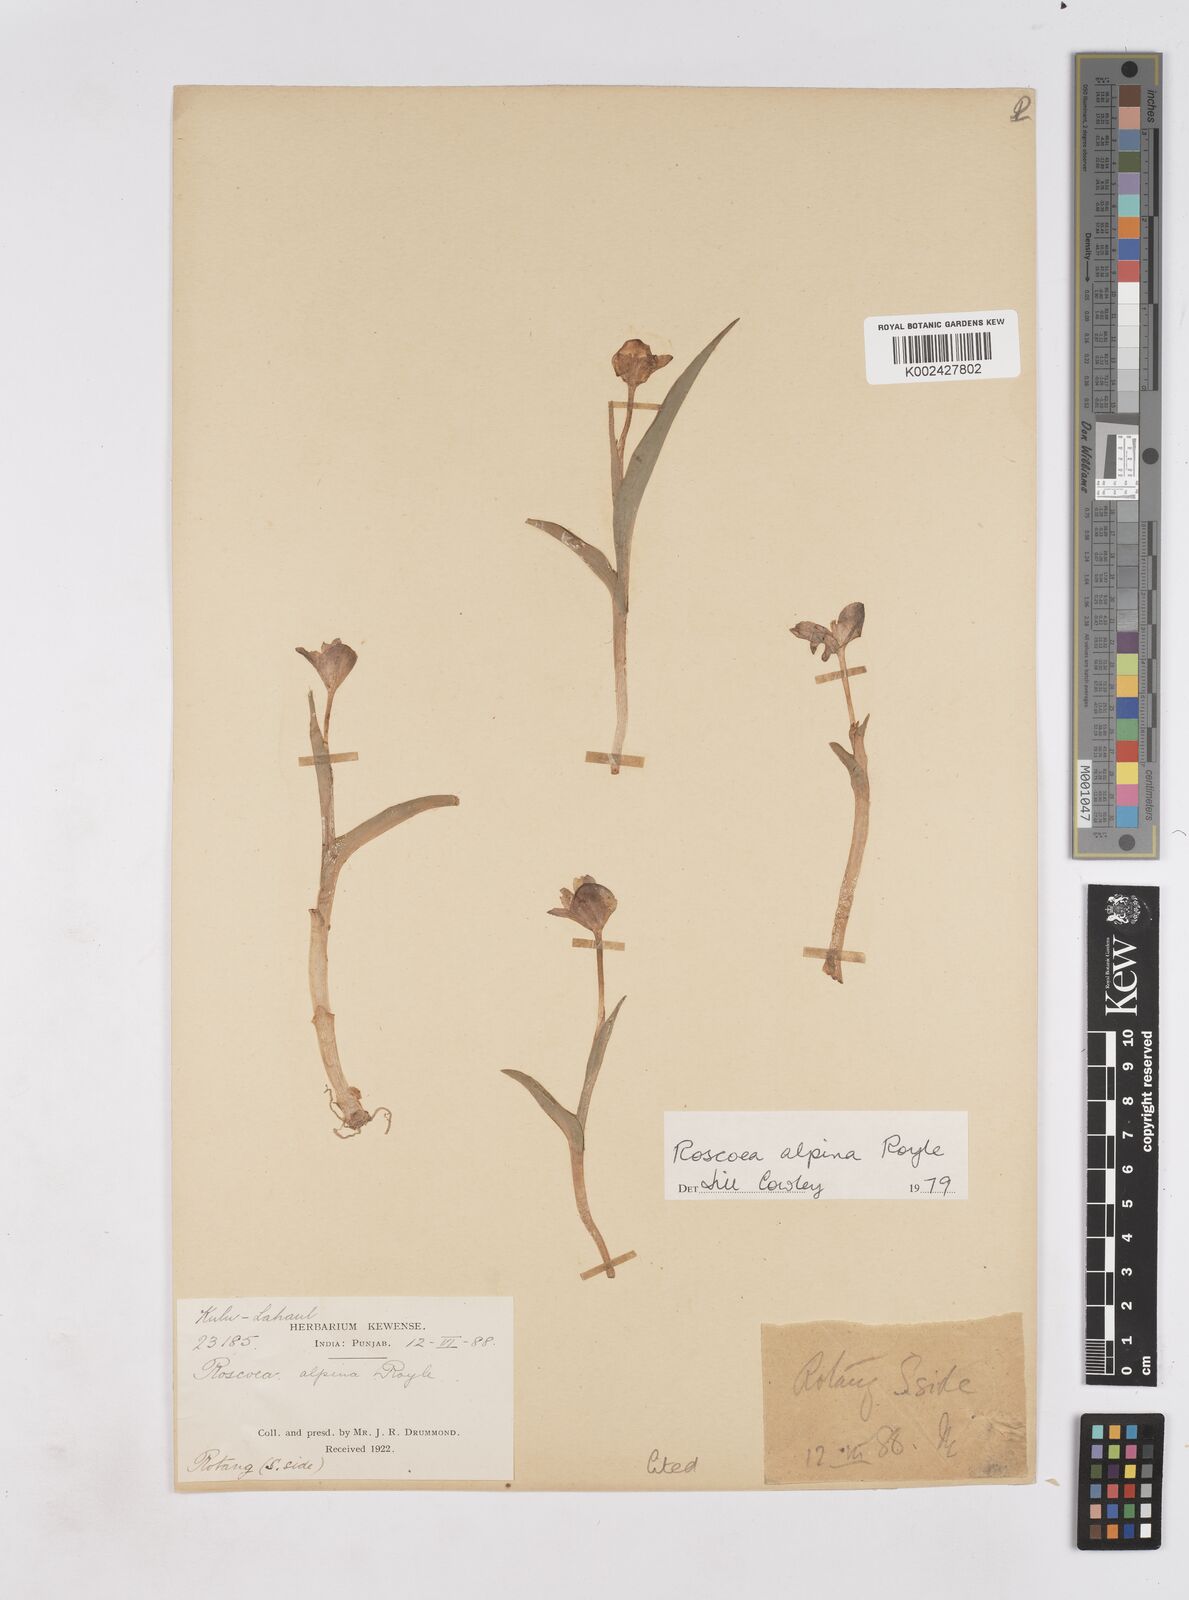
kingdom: Plantae
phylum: Tracheophyta
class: Liliopsida
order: Zingiberales
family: Zingiberaceae
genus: Roscoea
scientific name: Roscoea alpina
